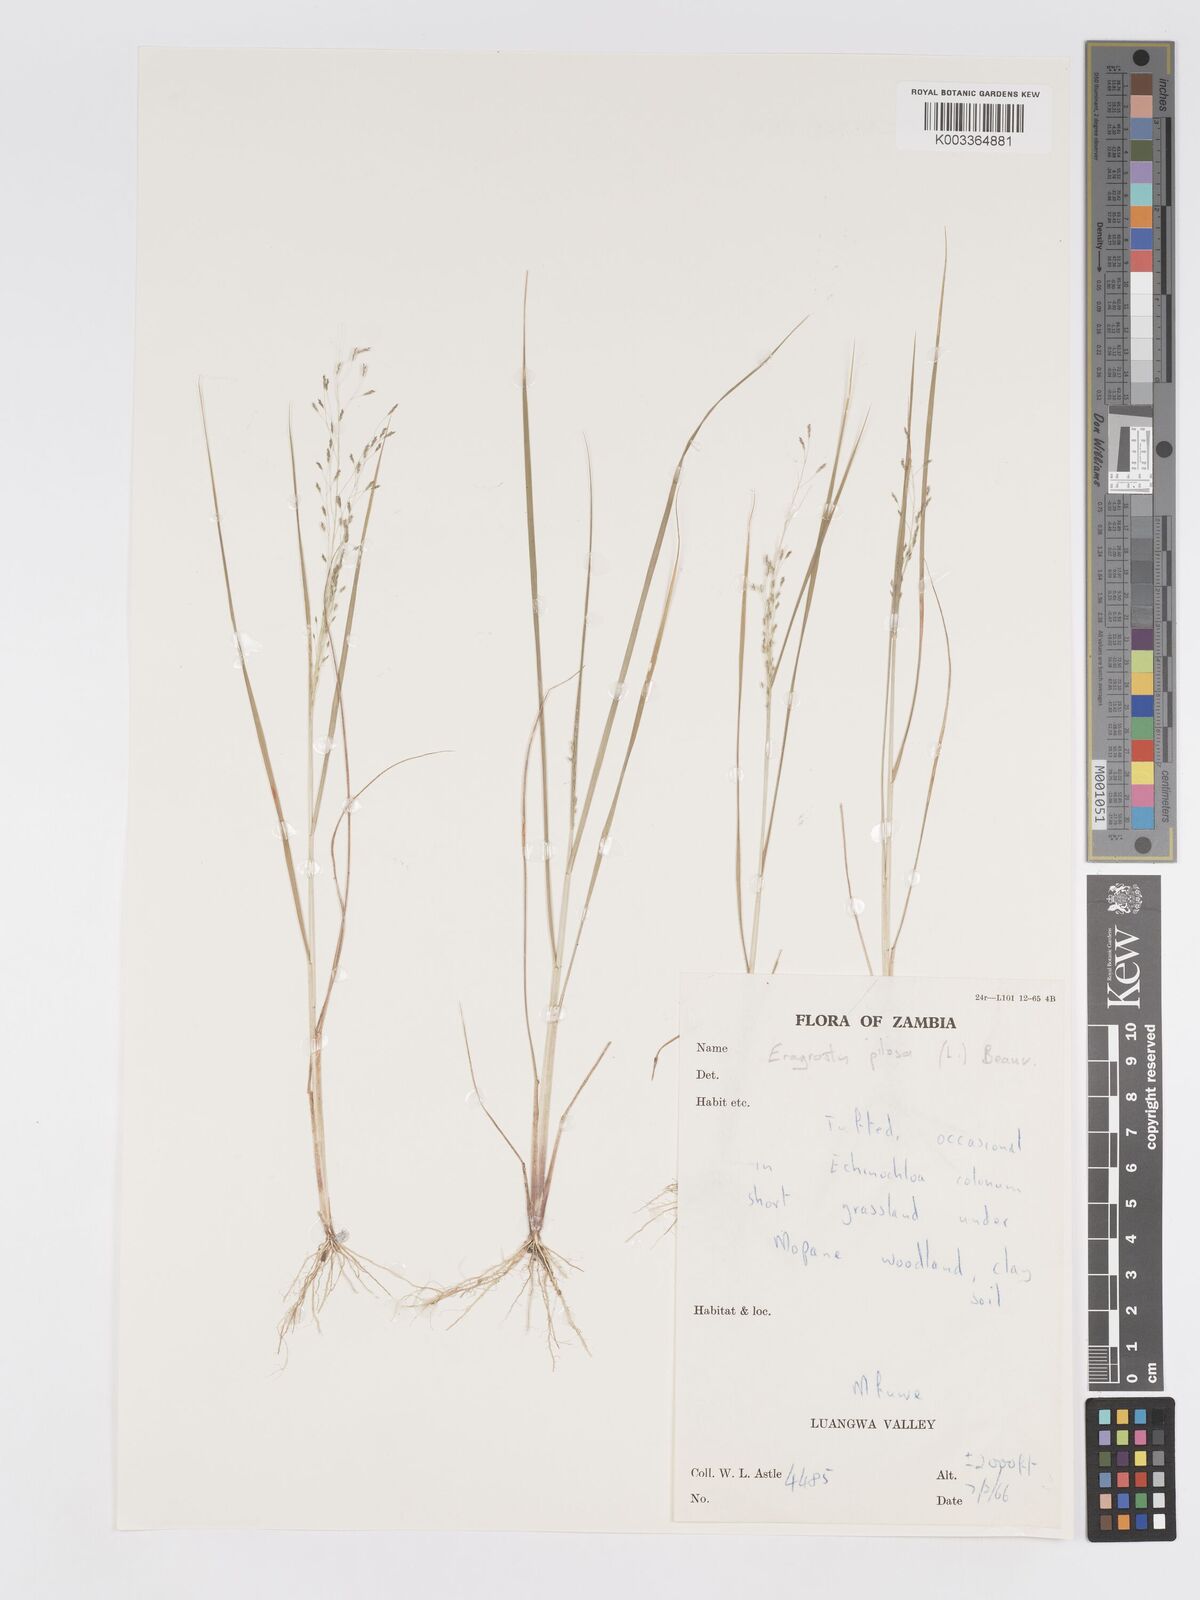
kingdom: Plantae
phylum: Tracheophyta
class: Liliopsida
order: Poales
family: Poaceae
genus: Eragrostis
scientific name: Eragrostis pilosa
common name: Indian lovegrass
